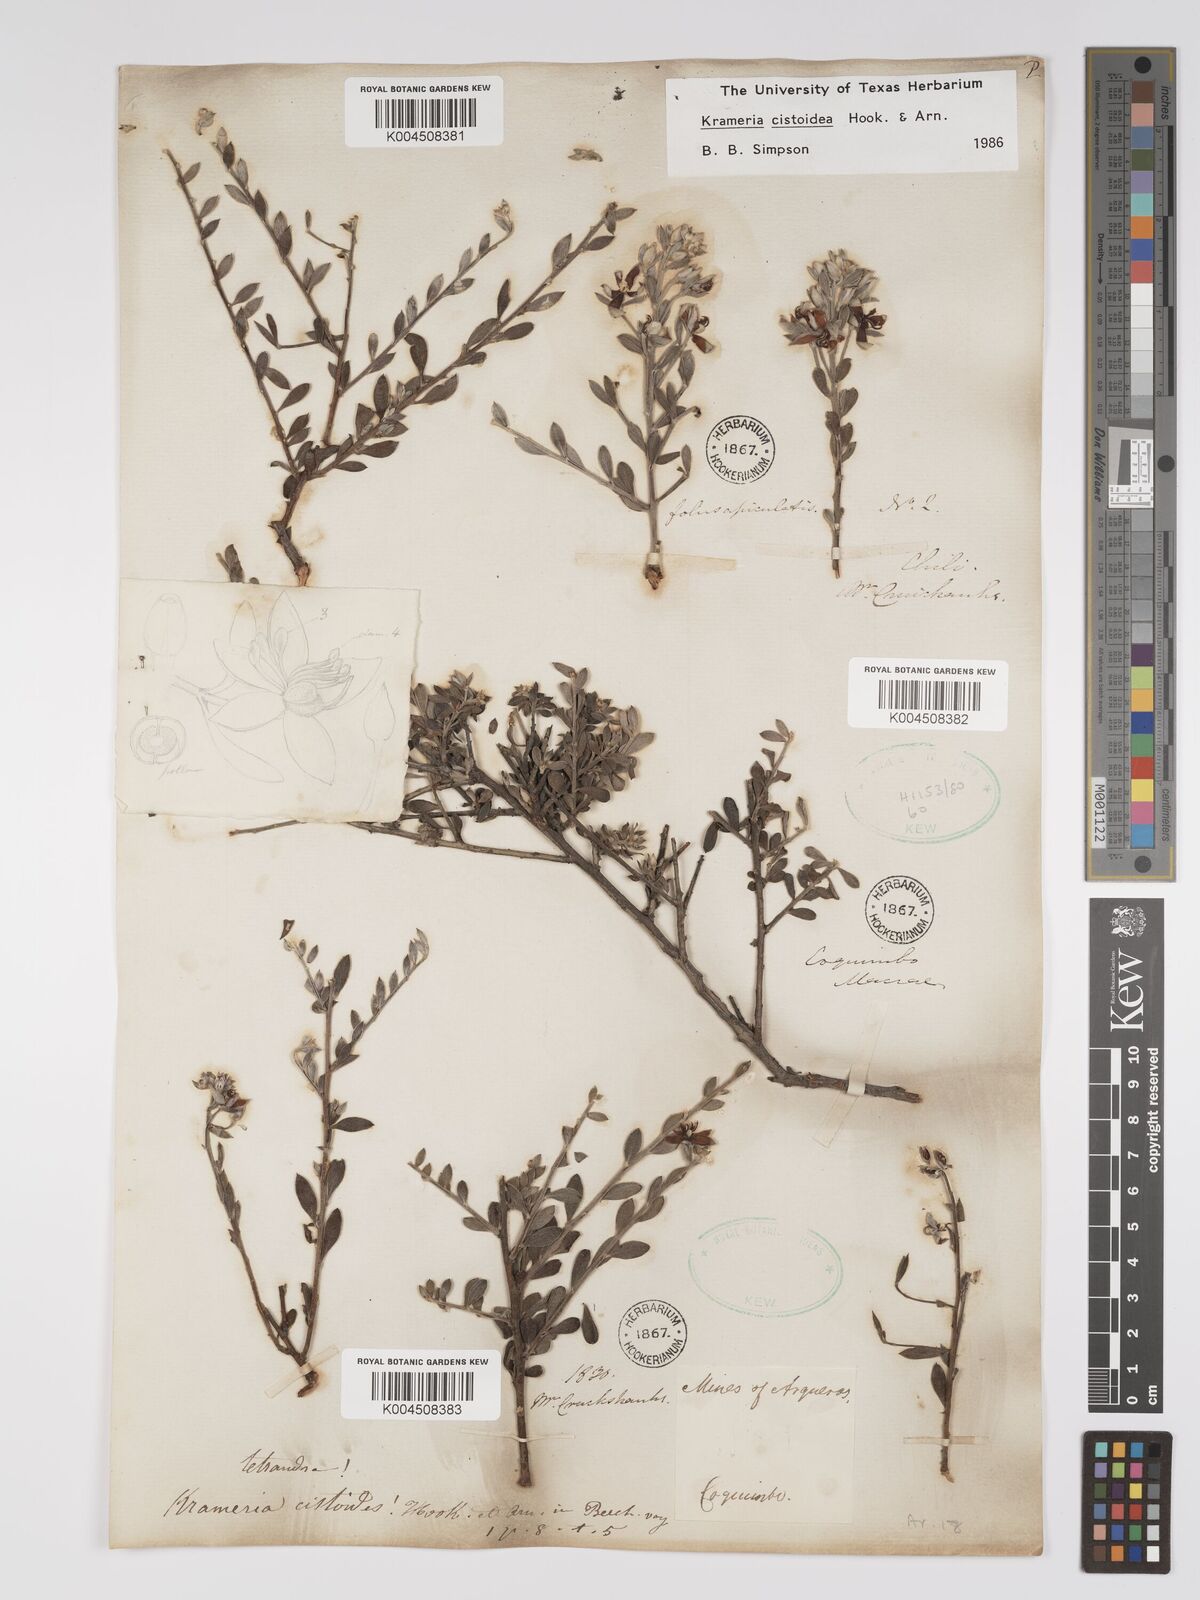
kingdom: Plantae
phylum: Tracheophyta
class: Magnoliopsida
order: Zygophyllales
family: Krameriaceae
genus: Krameria
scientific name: Krameria cistoidea
